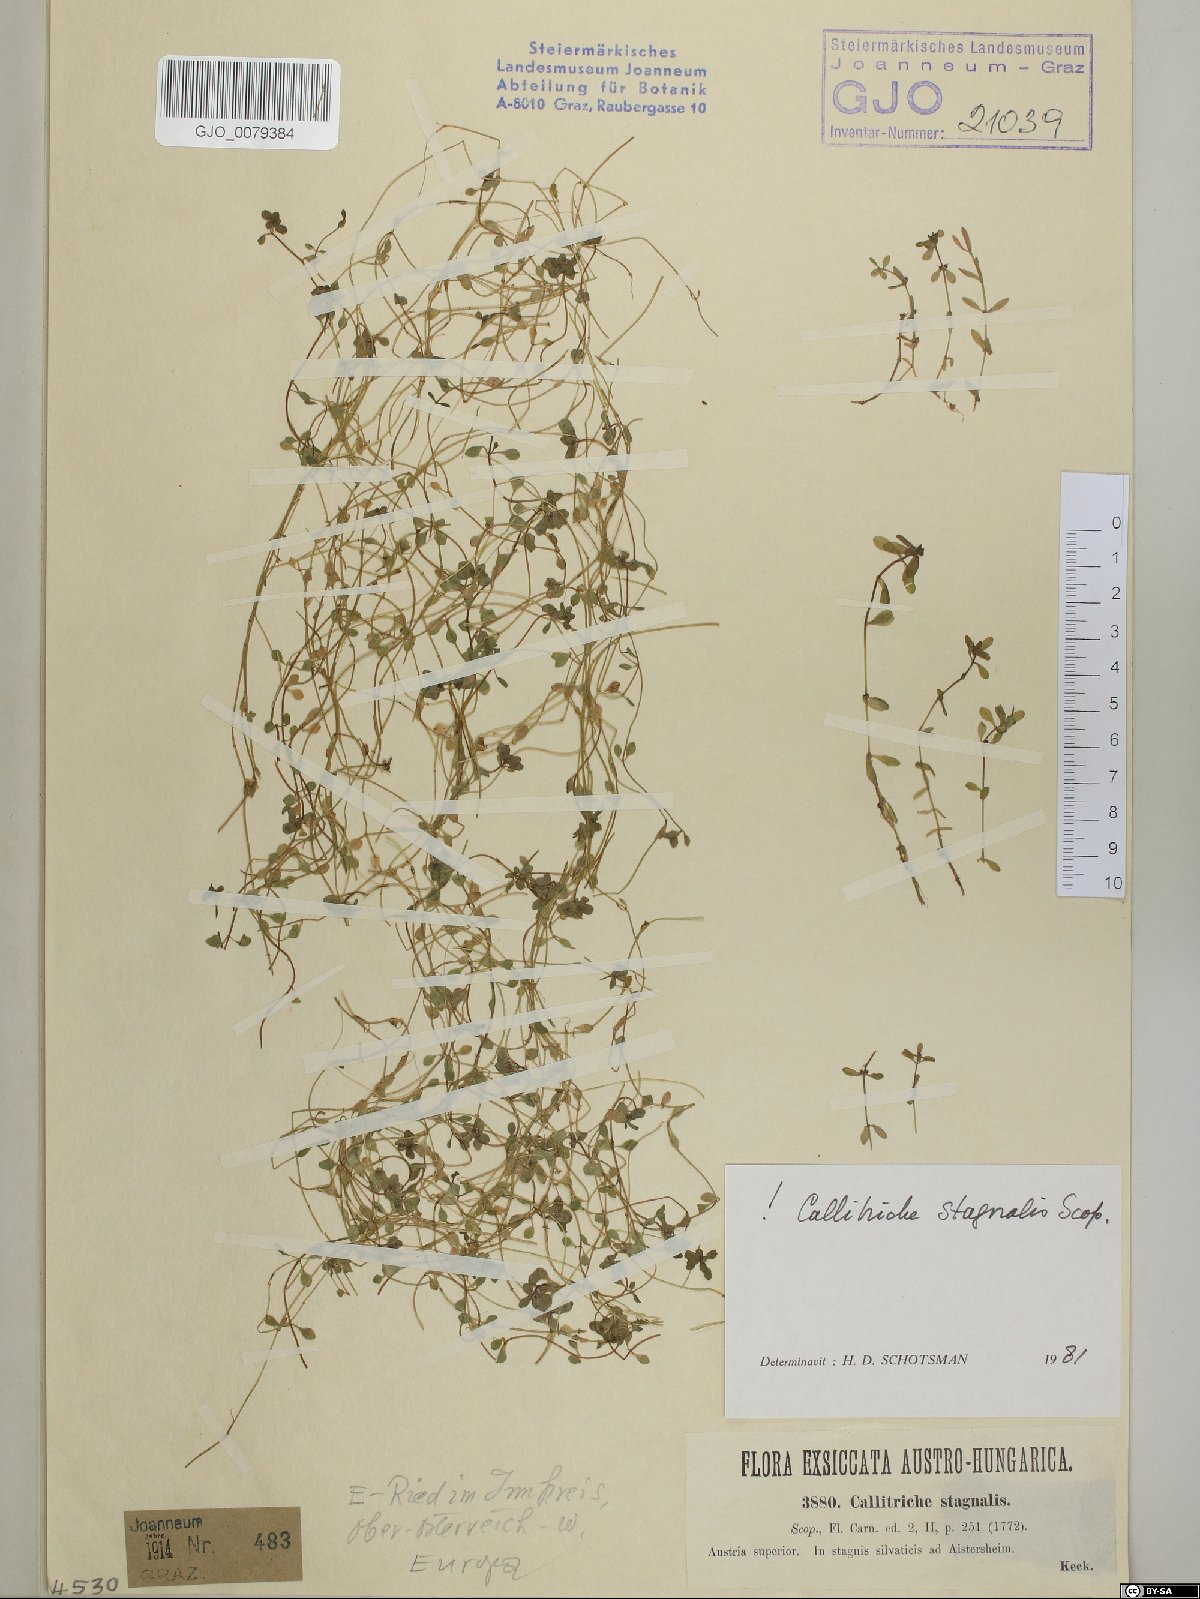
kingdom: Plantae
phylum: Tracheophyta
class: Magnoliopsida
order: Lamiales
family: Plantaginaceae
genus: Callitriche
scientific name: Callitriche stagnalis
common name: Common water-starwort
